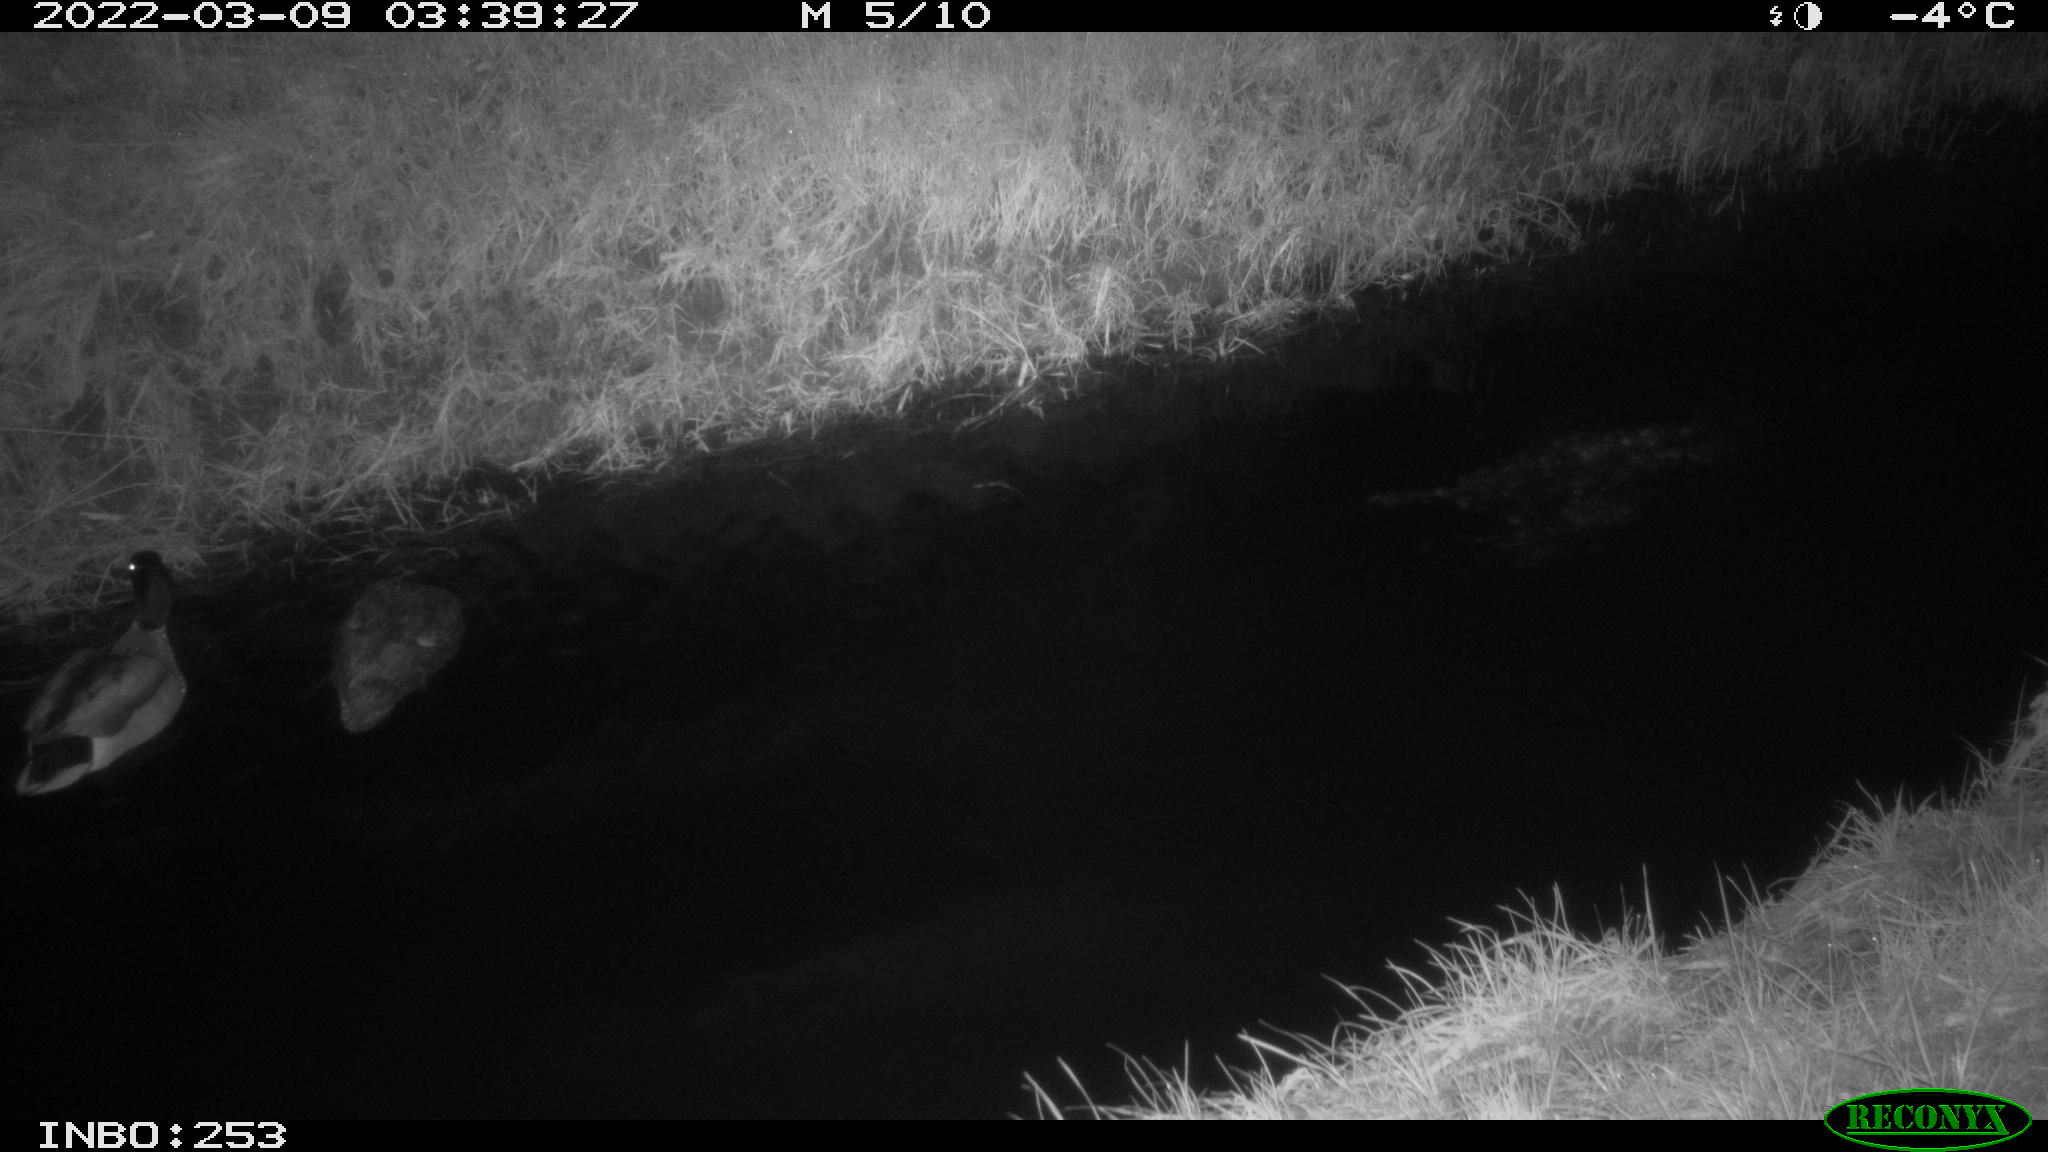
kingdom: Animalia
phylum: Chordata
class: Aves
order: Anseriformes
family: Anatidae
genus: Anas
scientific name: Anas platyrhynchos
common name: Mallard
